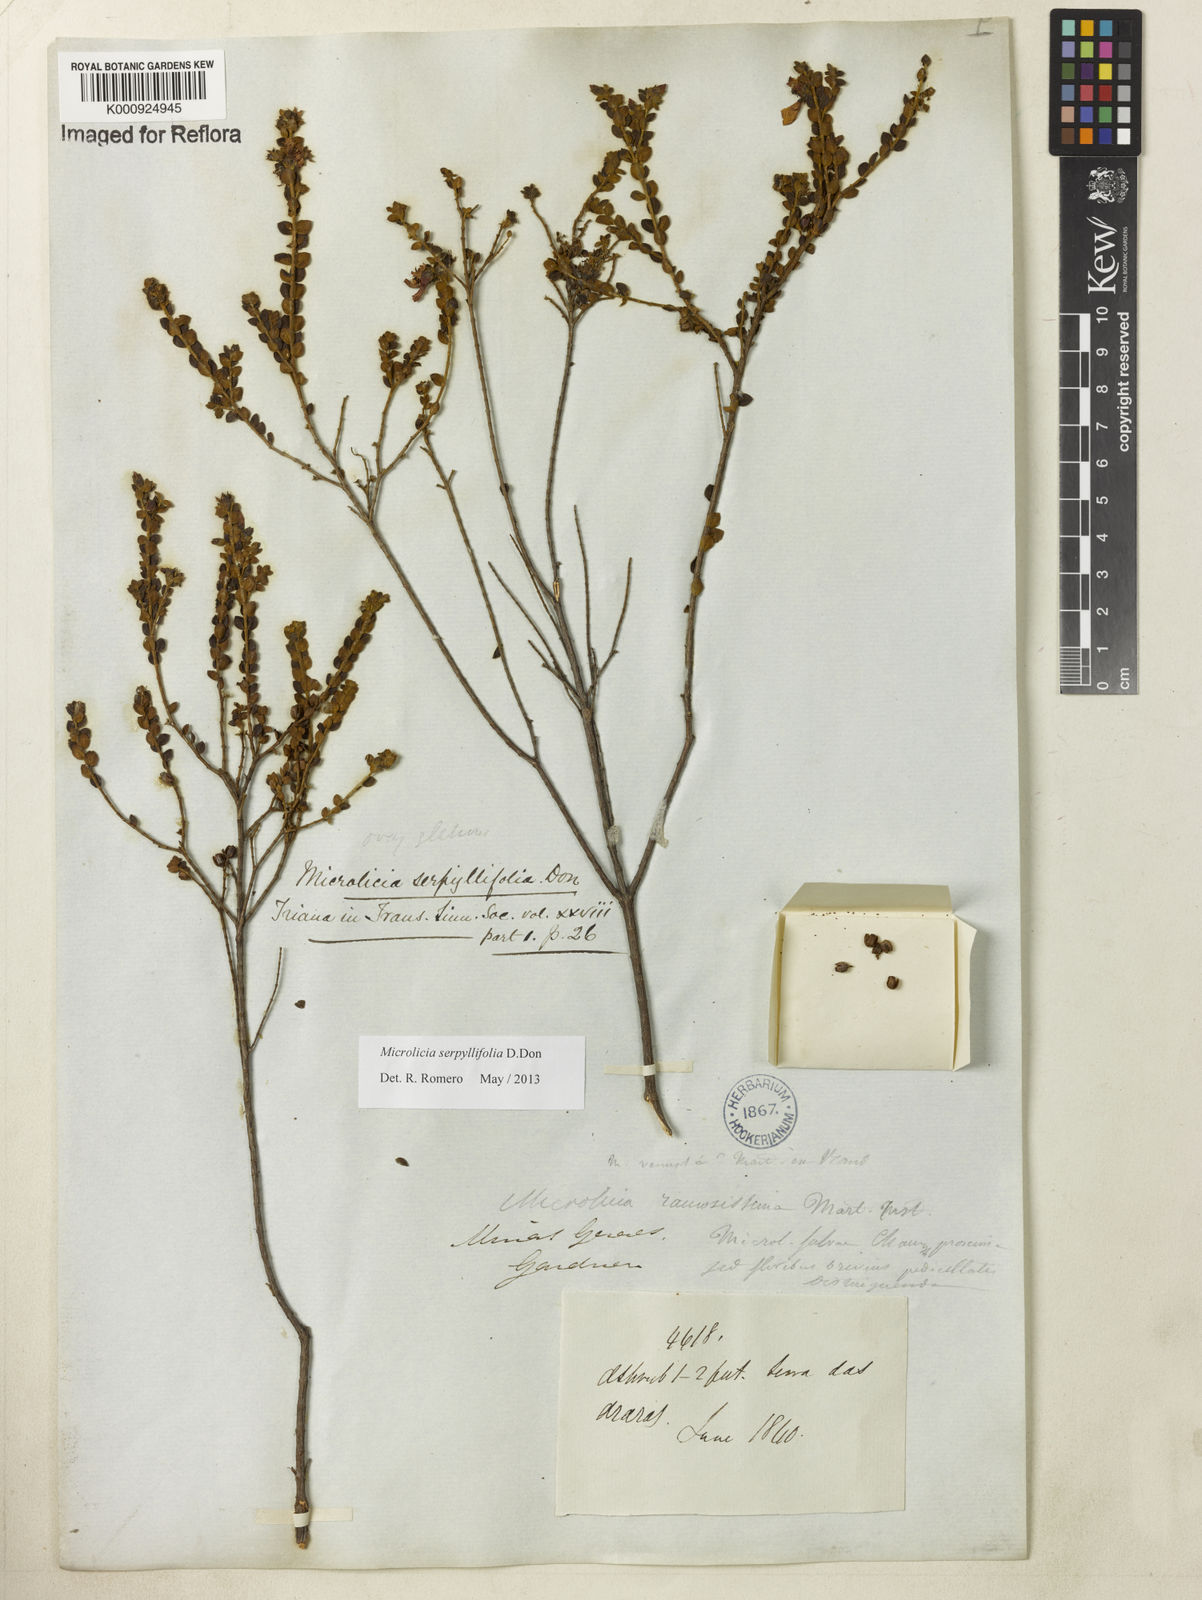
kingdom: Plantae
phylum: Tracheophyta
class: Magnoliopsida
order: Myrtales
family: Melastomataceae
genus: Microlicia
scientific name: Microlicia fulva
